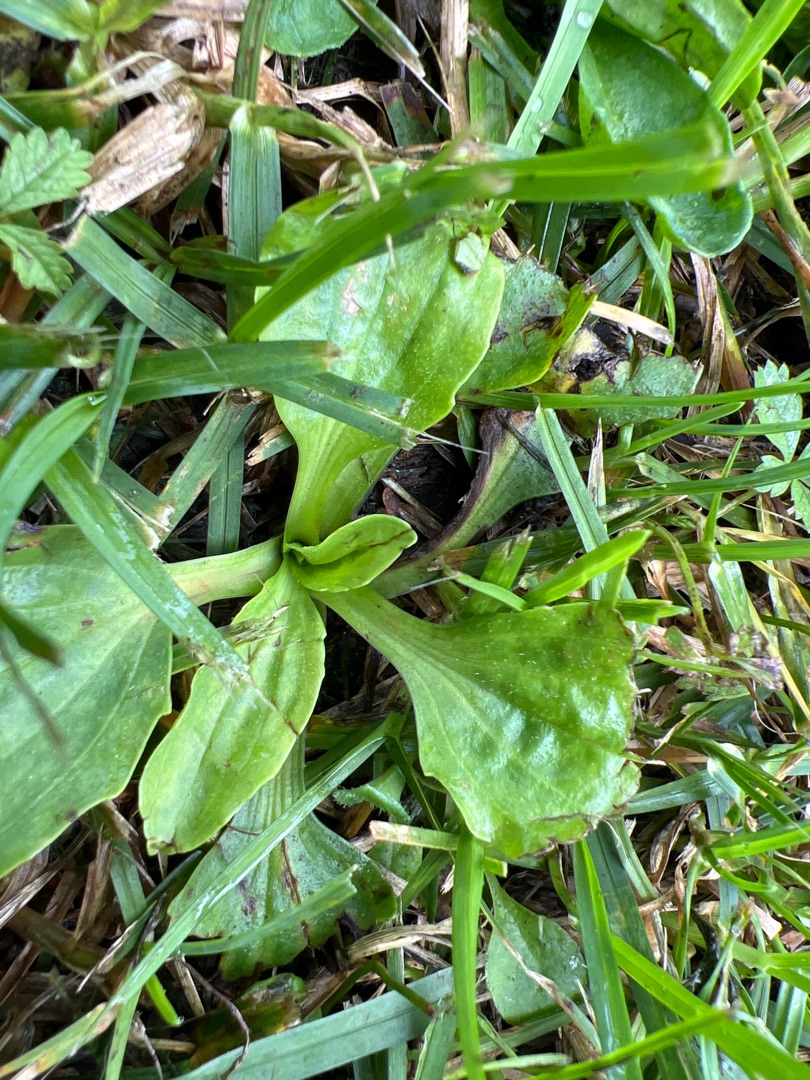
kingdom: Plantae
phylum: Tracheophyta
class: Magnoliopsida
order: Lamiales
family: Plantaginaceae
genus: Plantago
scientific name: Plantago major
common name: Glat vejbred
